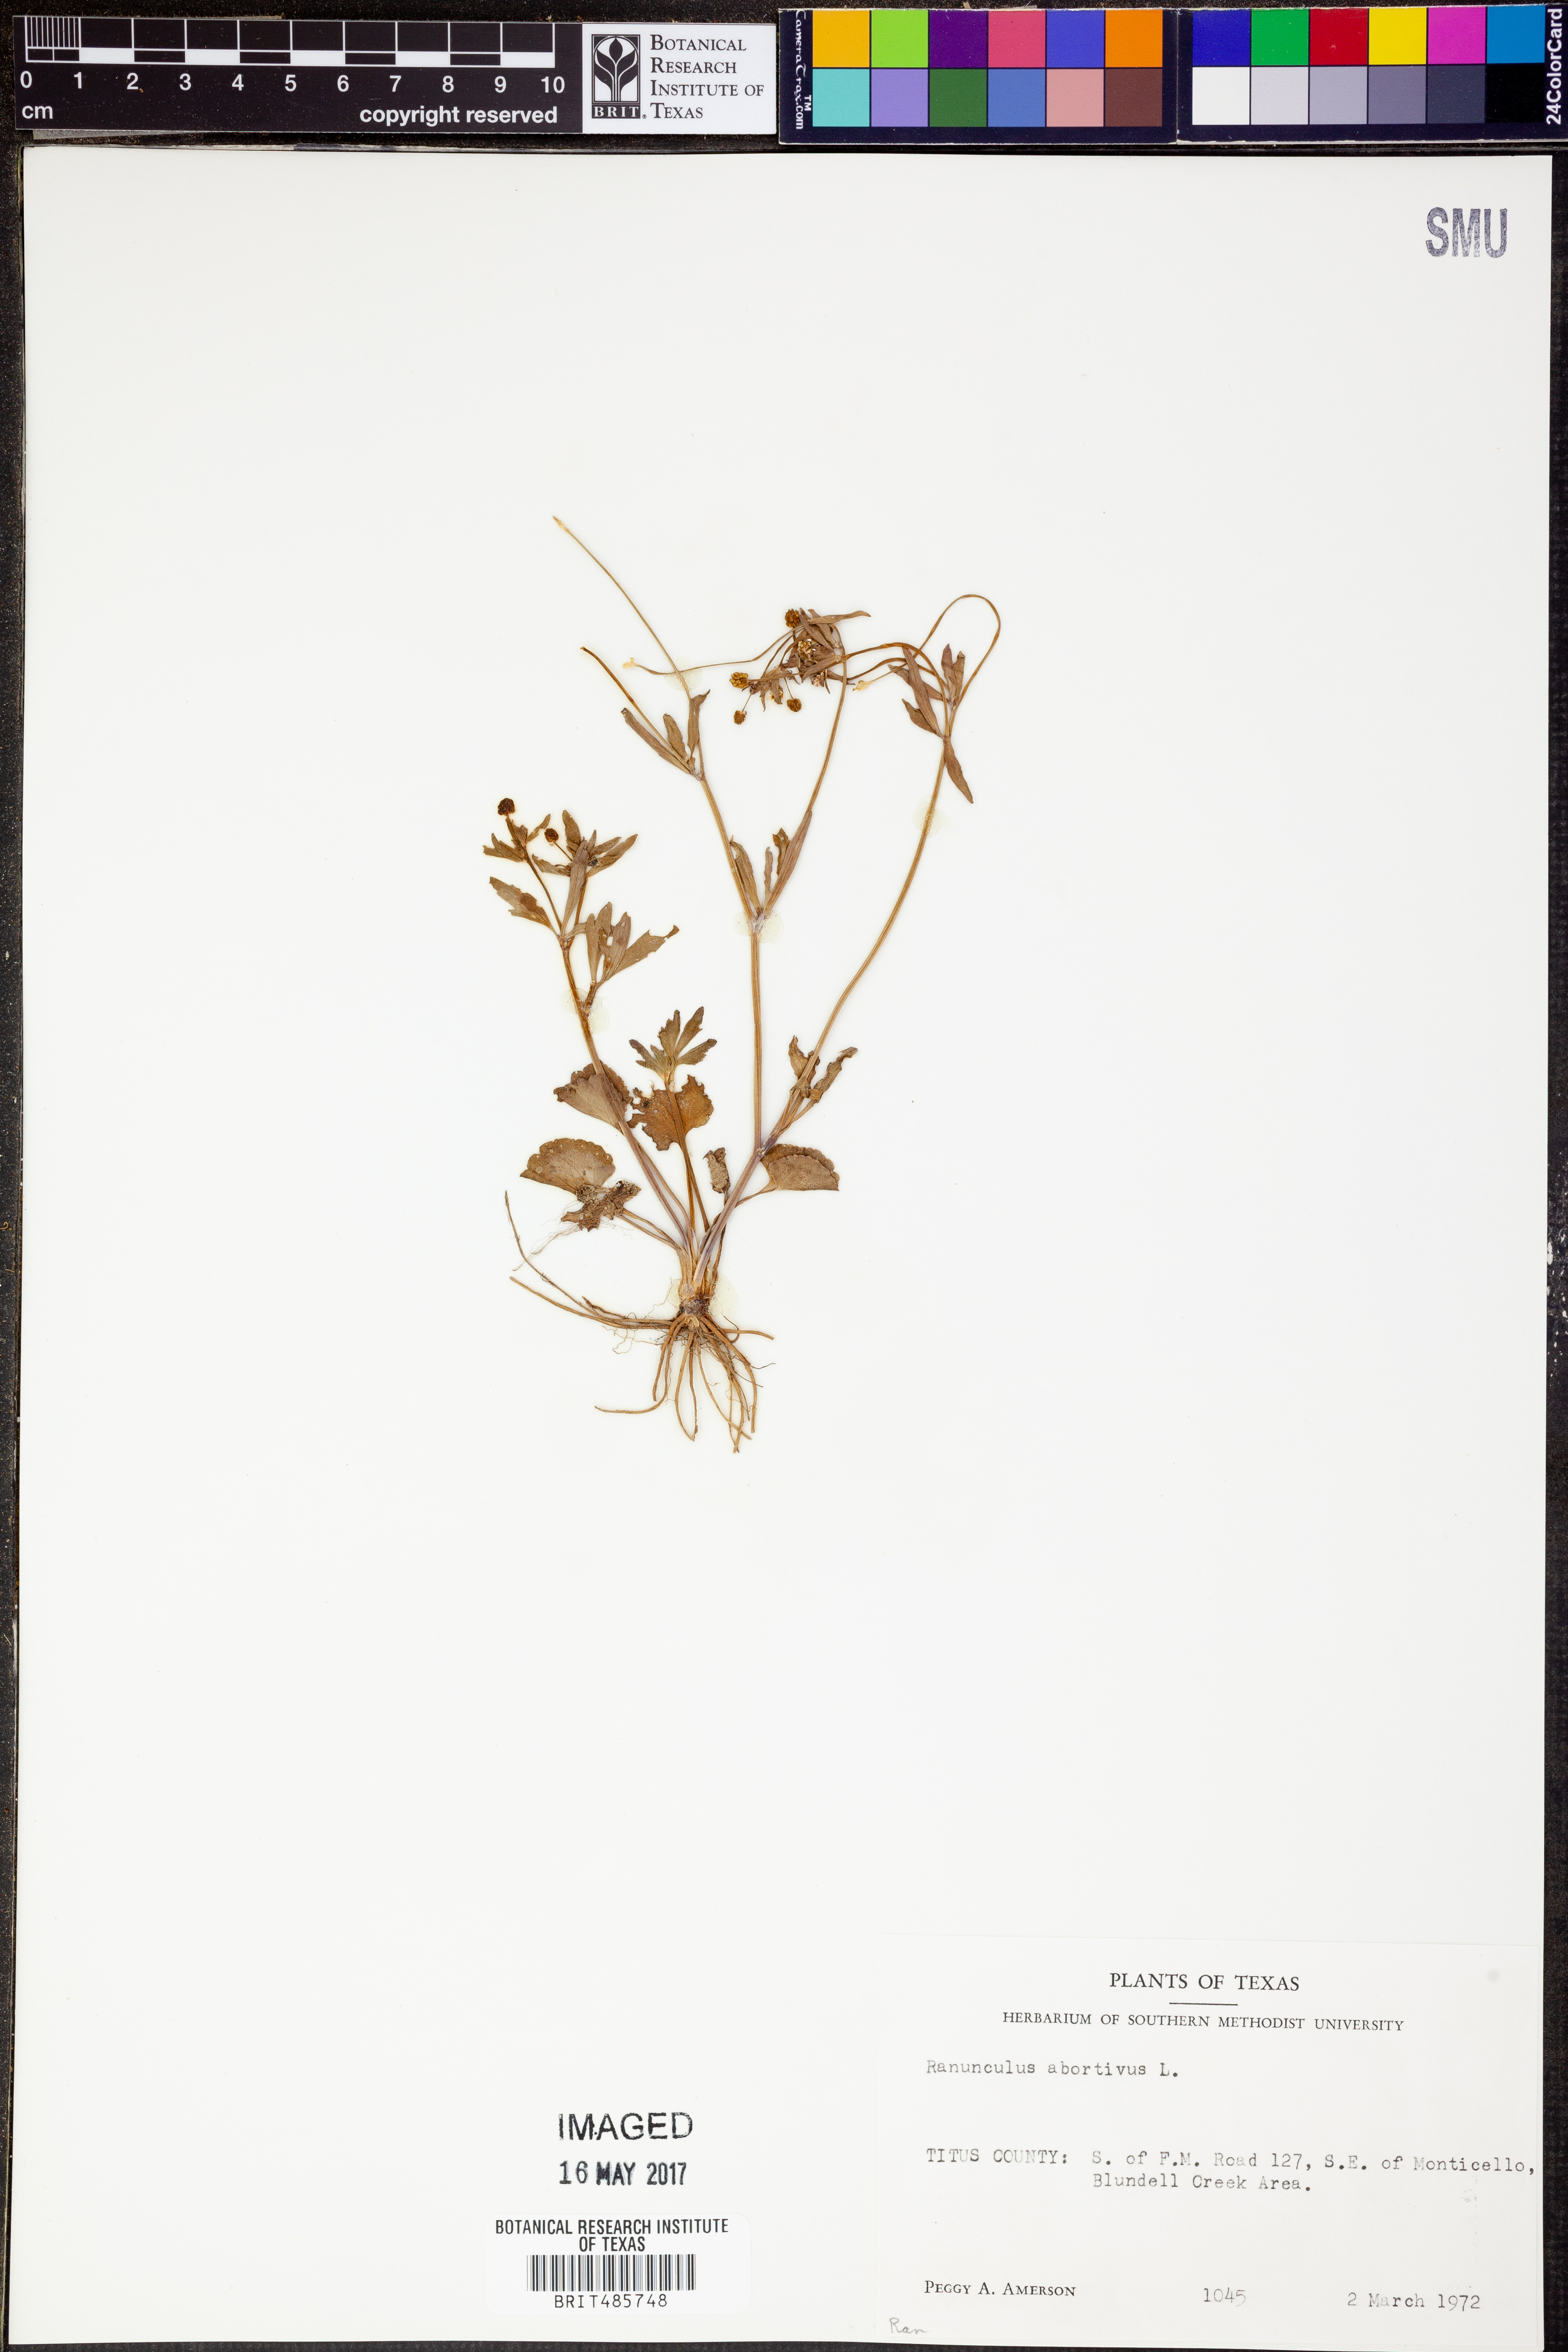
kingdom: Plantae
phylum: Tracheophyta
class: Magnoliopsida
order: Ranunculales
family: Ranunculaceae
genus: Ranunculus
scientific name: Ranunculus abortivus
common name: Early wood buttercup
